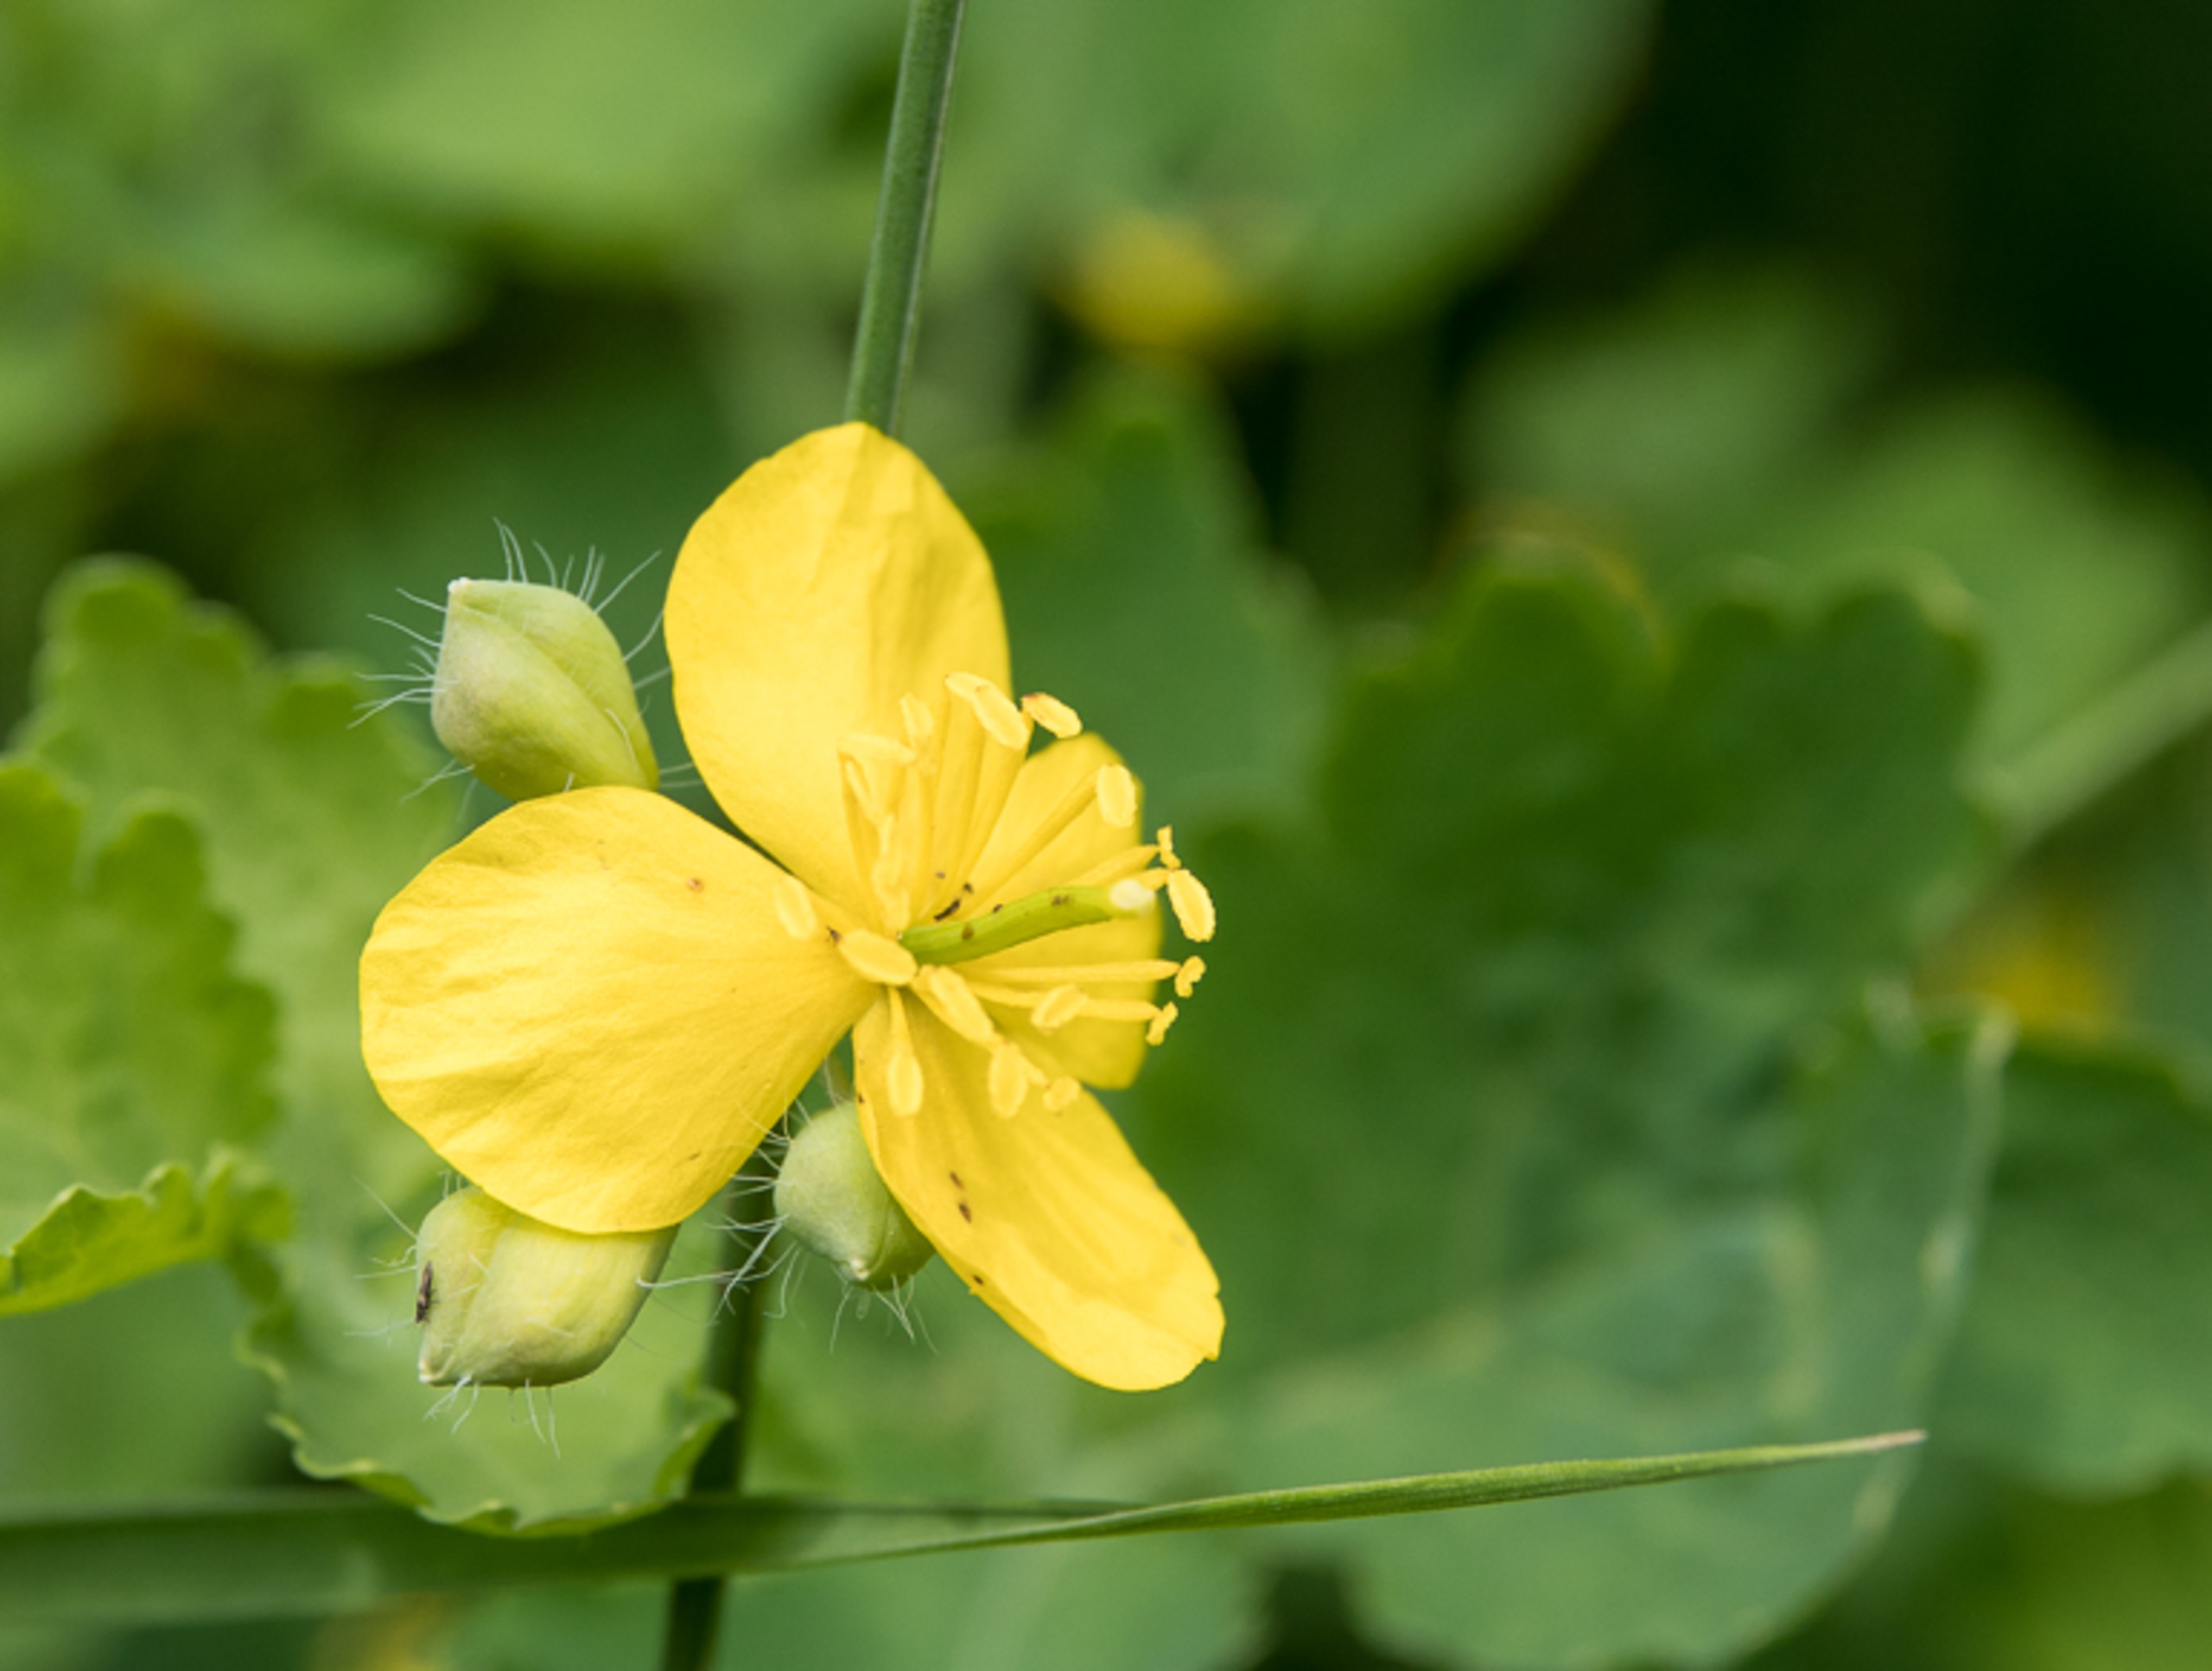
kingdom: Plantae
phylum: Tracheophyta
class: Magnoliopsida
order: Ranunculales
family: Papaveraceae
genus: Chelidonium
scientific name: Chelidonium majus
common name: Svaleurt
